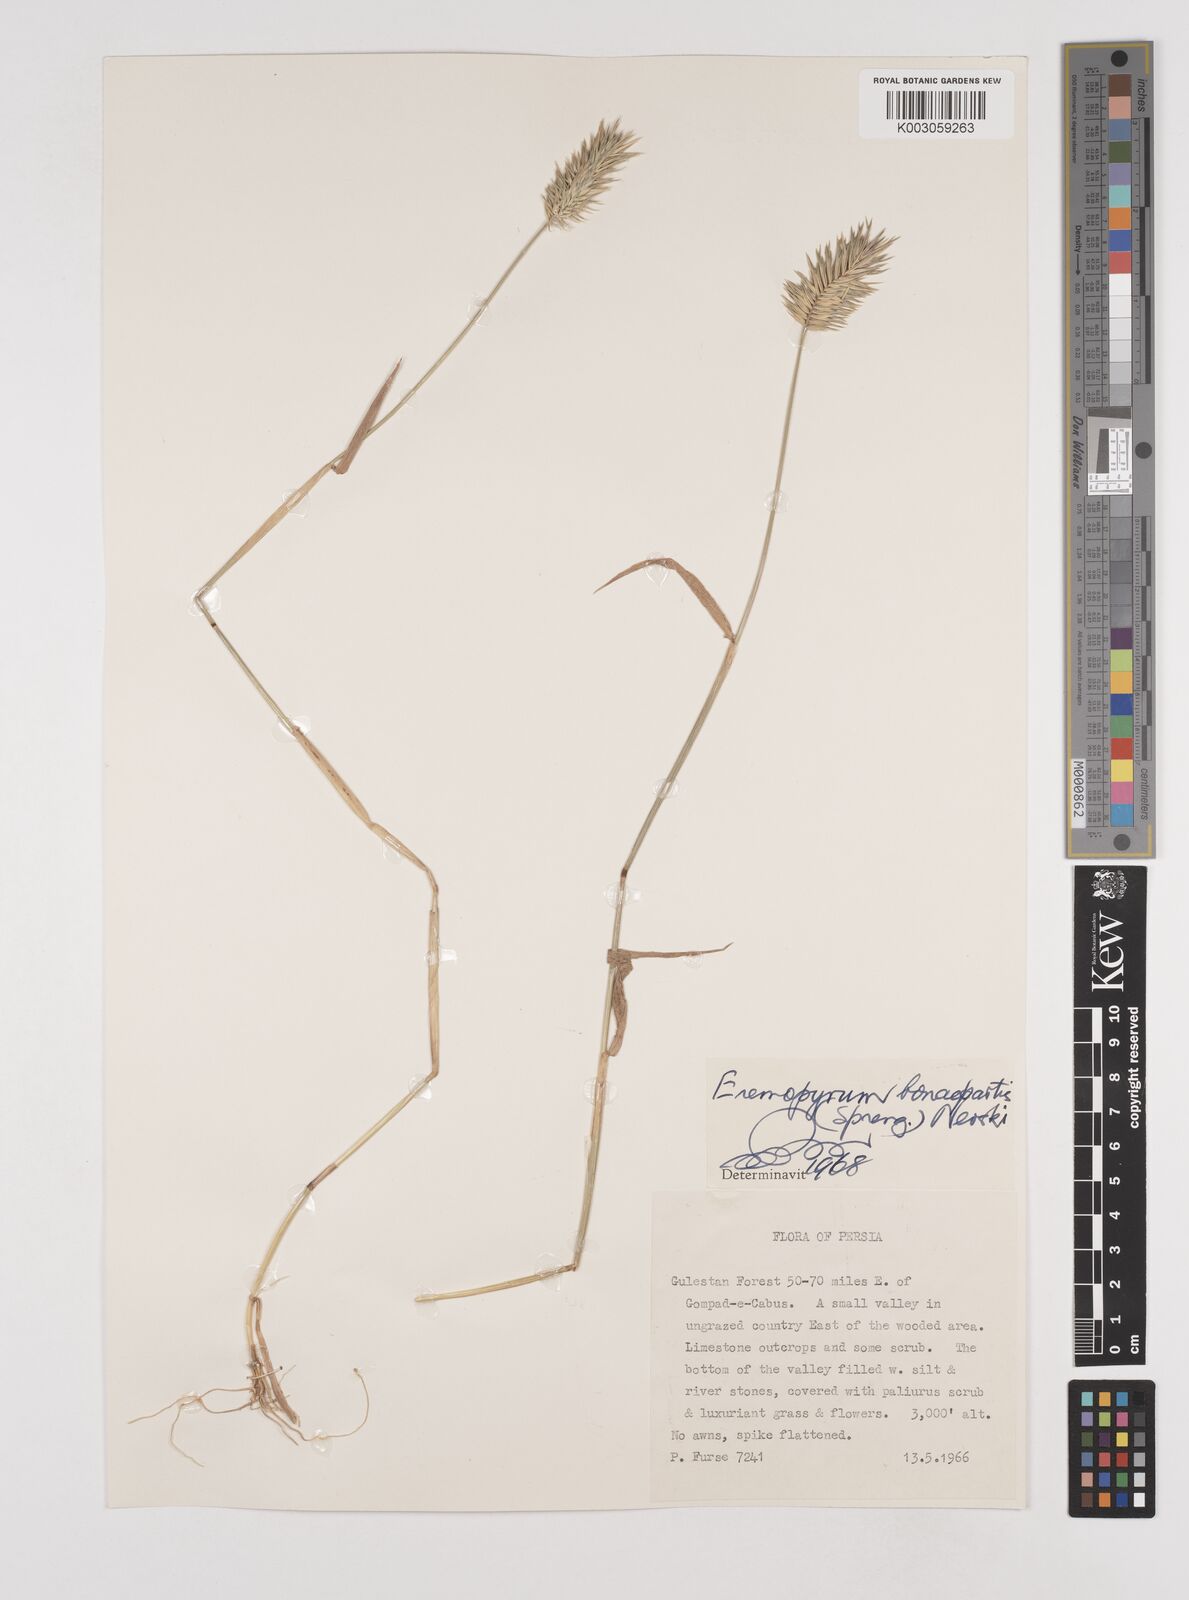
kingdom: Plantae
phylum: Tracheophyta
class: Liliopsida
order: Poales
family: Poaceae
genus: Eremopyrum
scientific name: Eremopyrum bonaepartis
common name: Tapertip false wheatgrass
